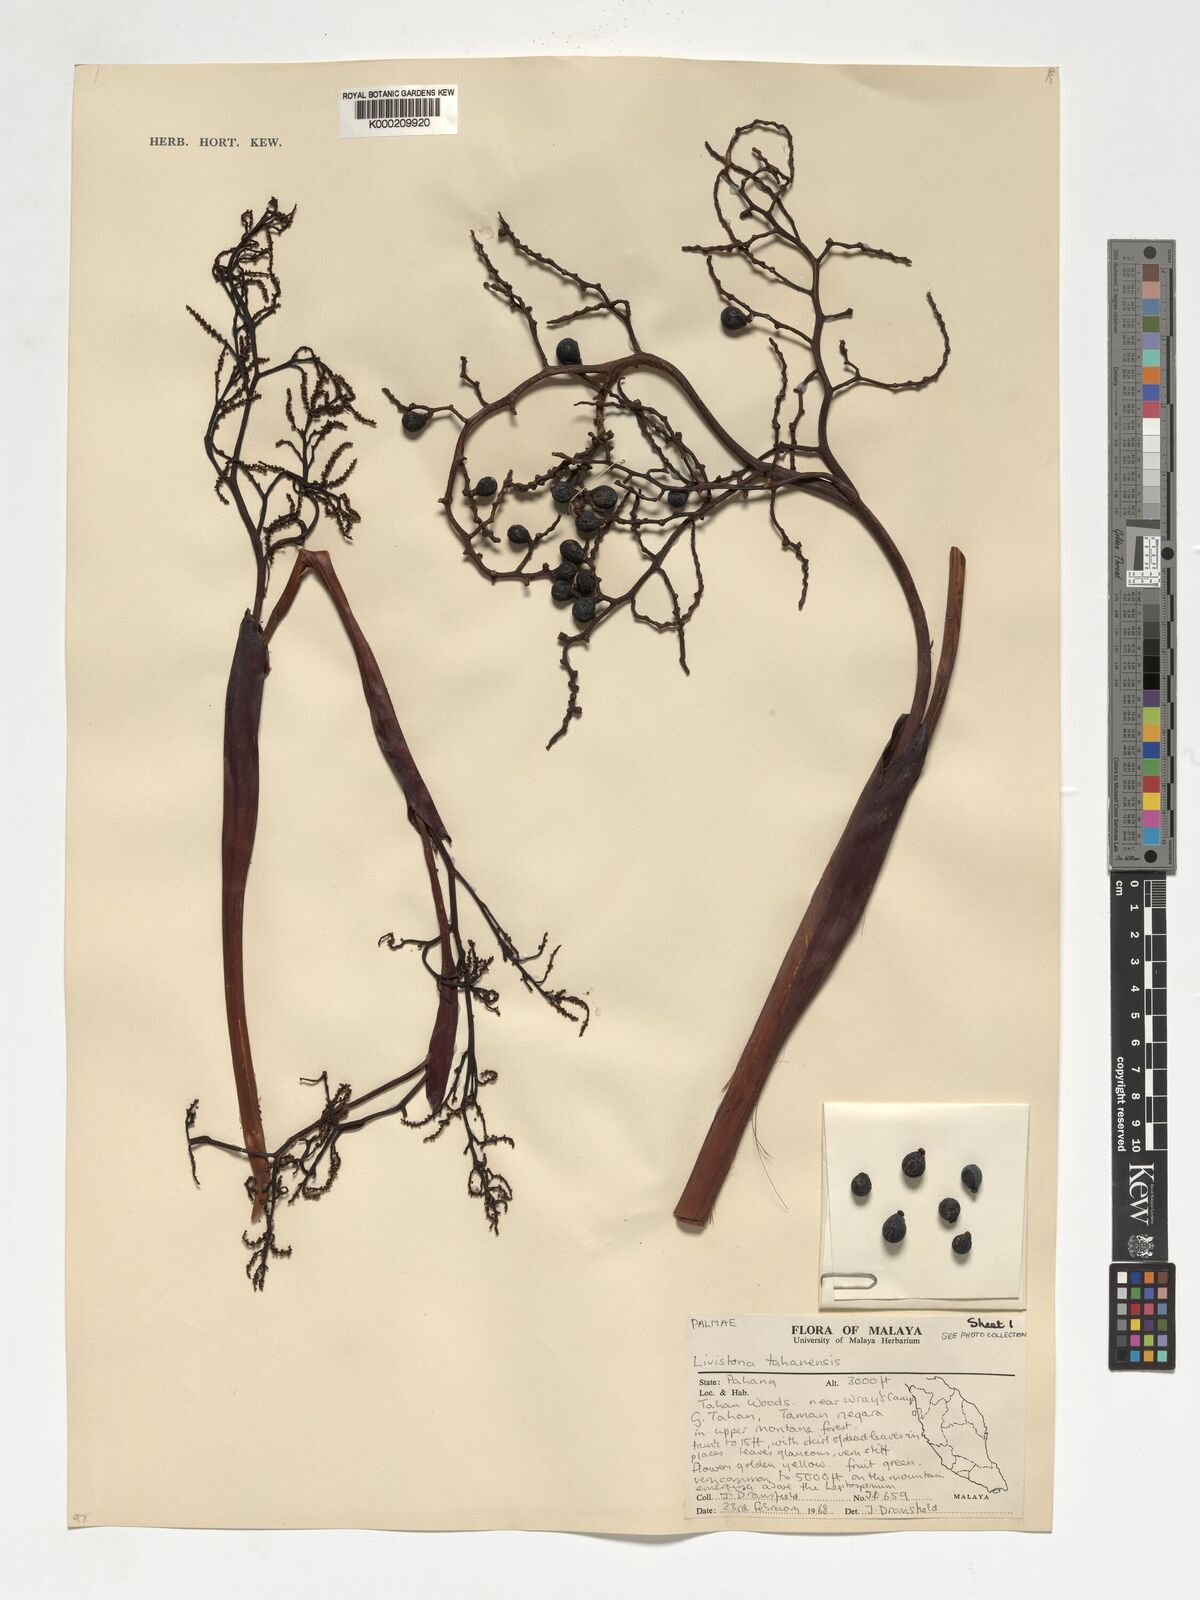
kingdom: Plantae
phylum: Tracheophyta
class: Liliopsida
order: Arecales
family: Arecaceae
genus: Livistona
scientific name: Livistona tahanensis
